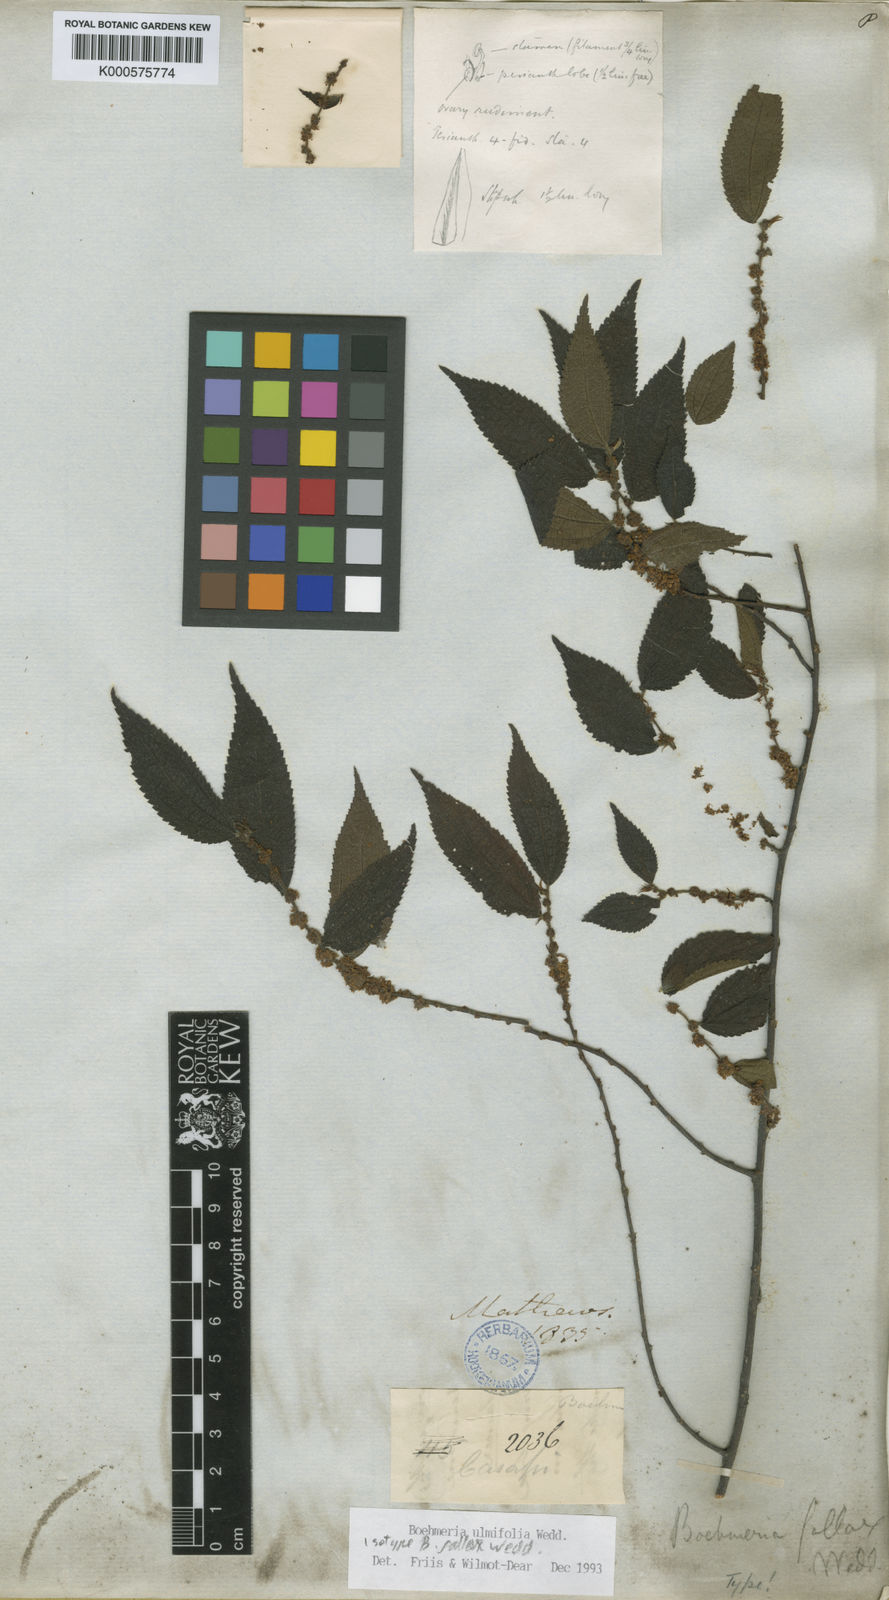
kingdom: Plantae
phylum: Tracheophyta
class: Magnoliopsida
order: Rosales
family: Urticaceae
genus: Boehmeria
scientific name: Boehmeria ulmifolia
